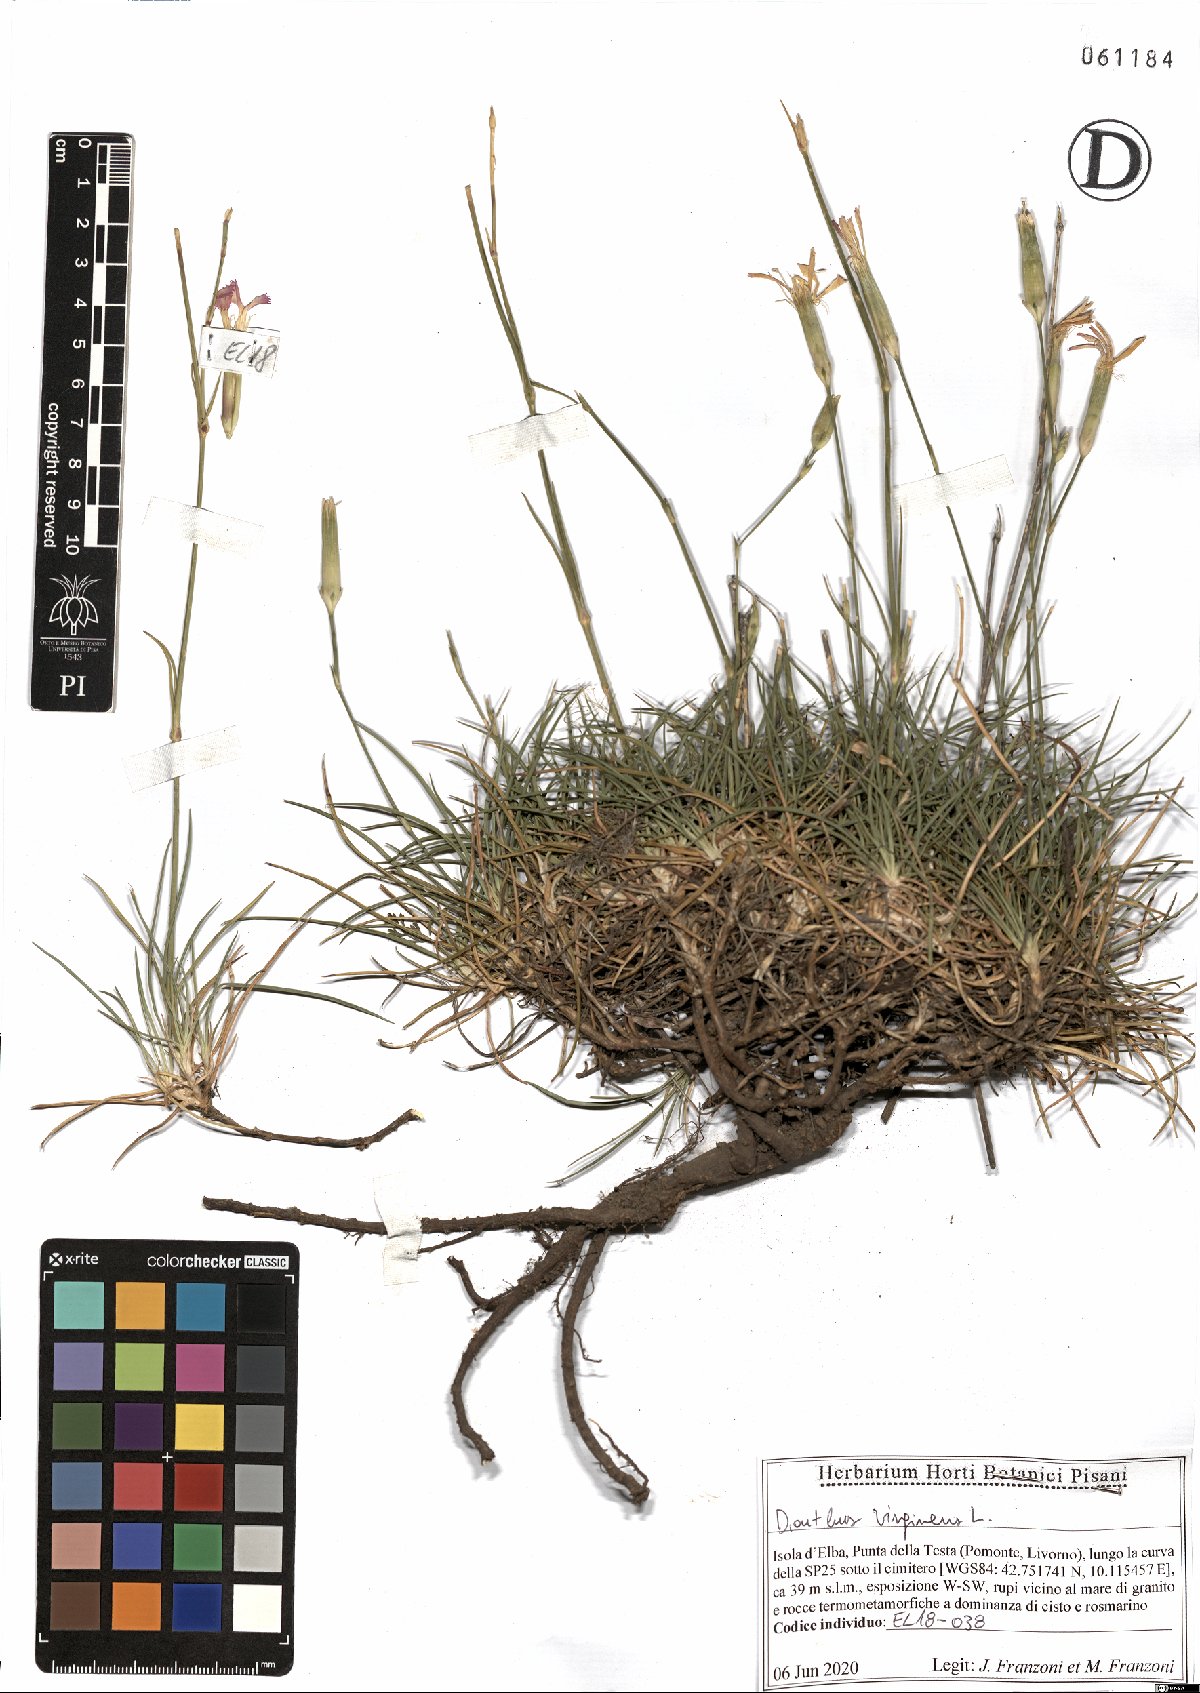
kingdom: Plantae
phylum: Tracheophyta
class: Magnoliopsida
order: Caryophyllales
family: Caryophyllaceae
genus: Dianthus
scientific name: Dianthus virgineus
